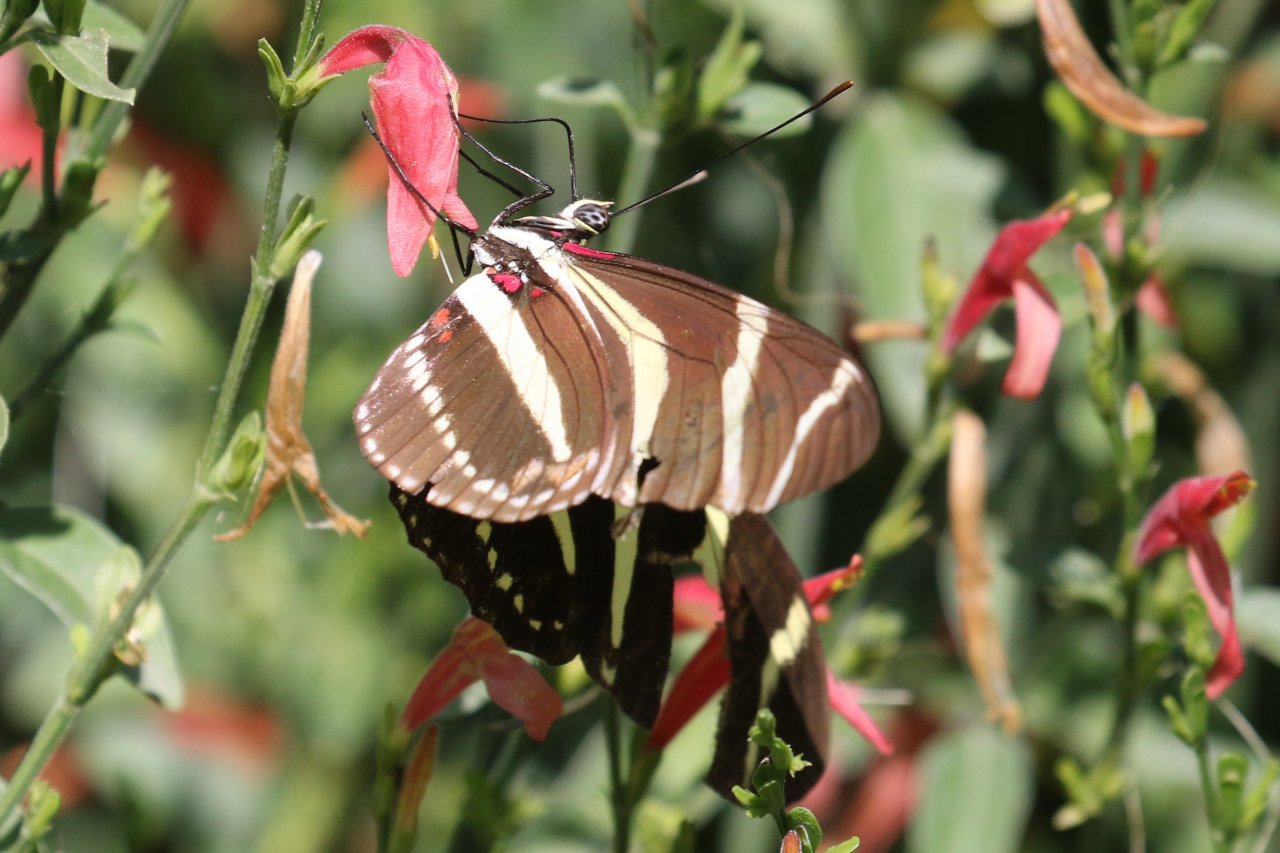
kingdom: Animalia
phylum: Arthropoda
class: Insecta
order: Lepidoptera
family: Nymphalidae
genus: Heliconius
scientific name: Heliconius charithonia
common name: Zebra Longwing
